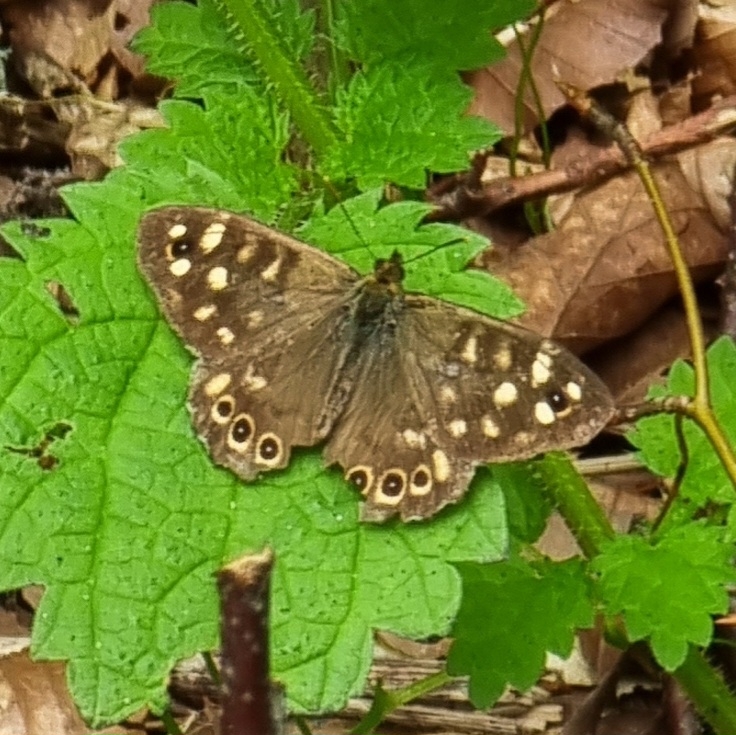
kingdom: Animalia
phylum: Arthropoda
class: Insecta
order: Lepidoptera
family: Nymphalidae
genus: Pararge
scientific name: Pararge aegeria
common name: Skovrandøje
